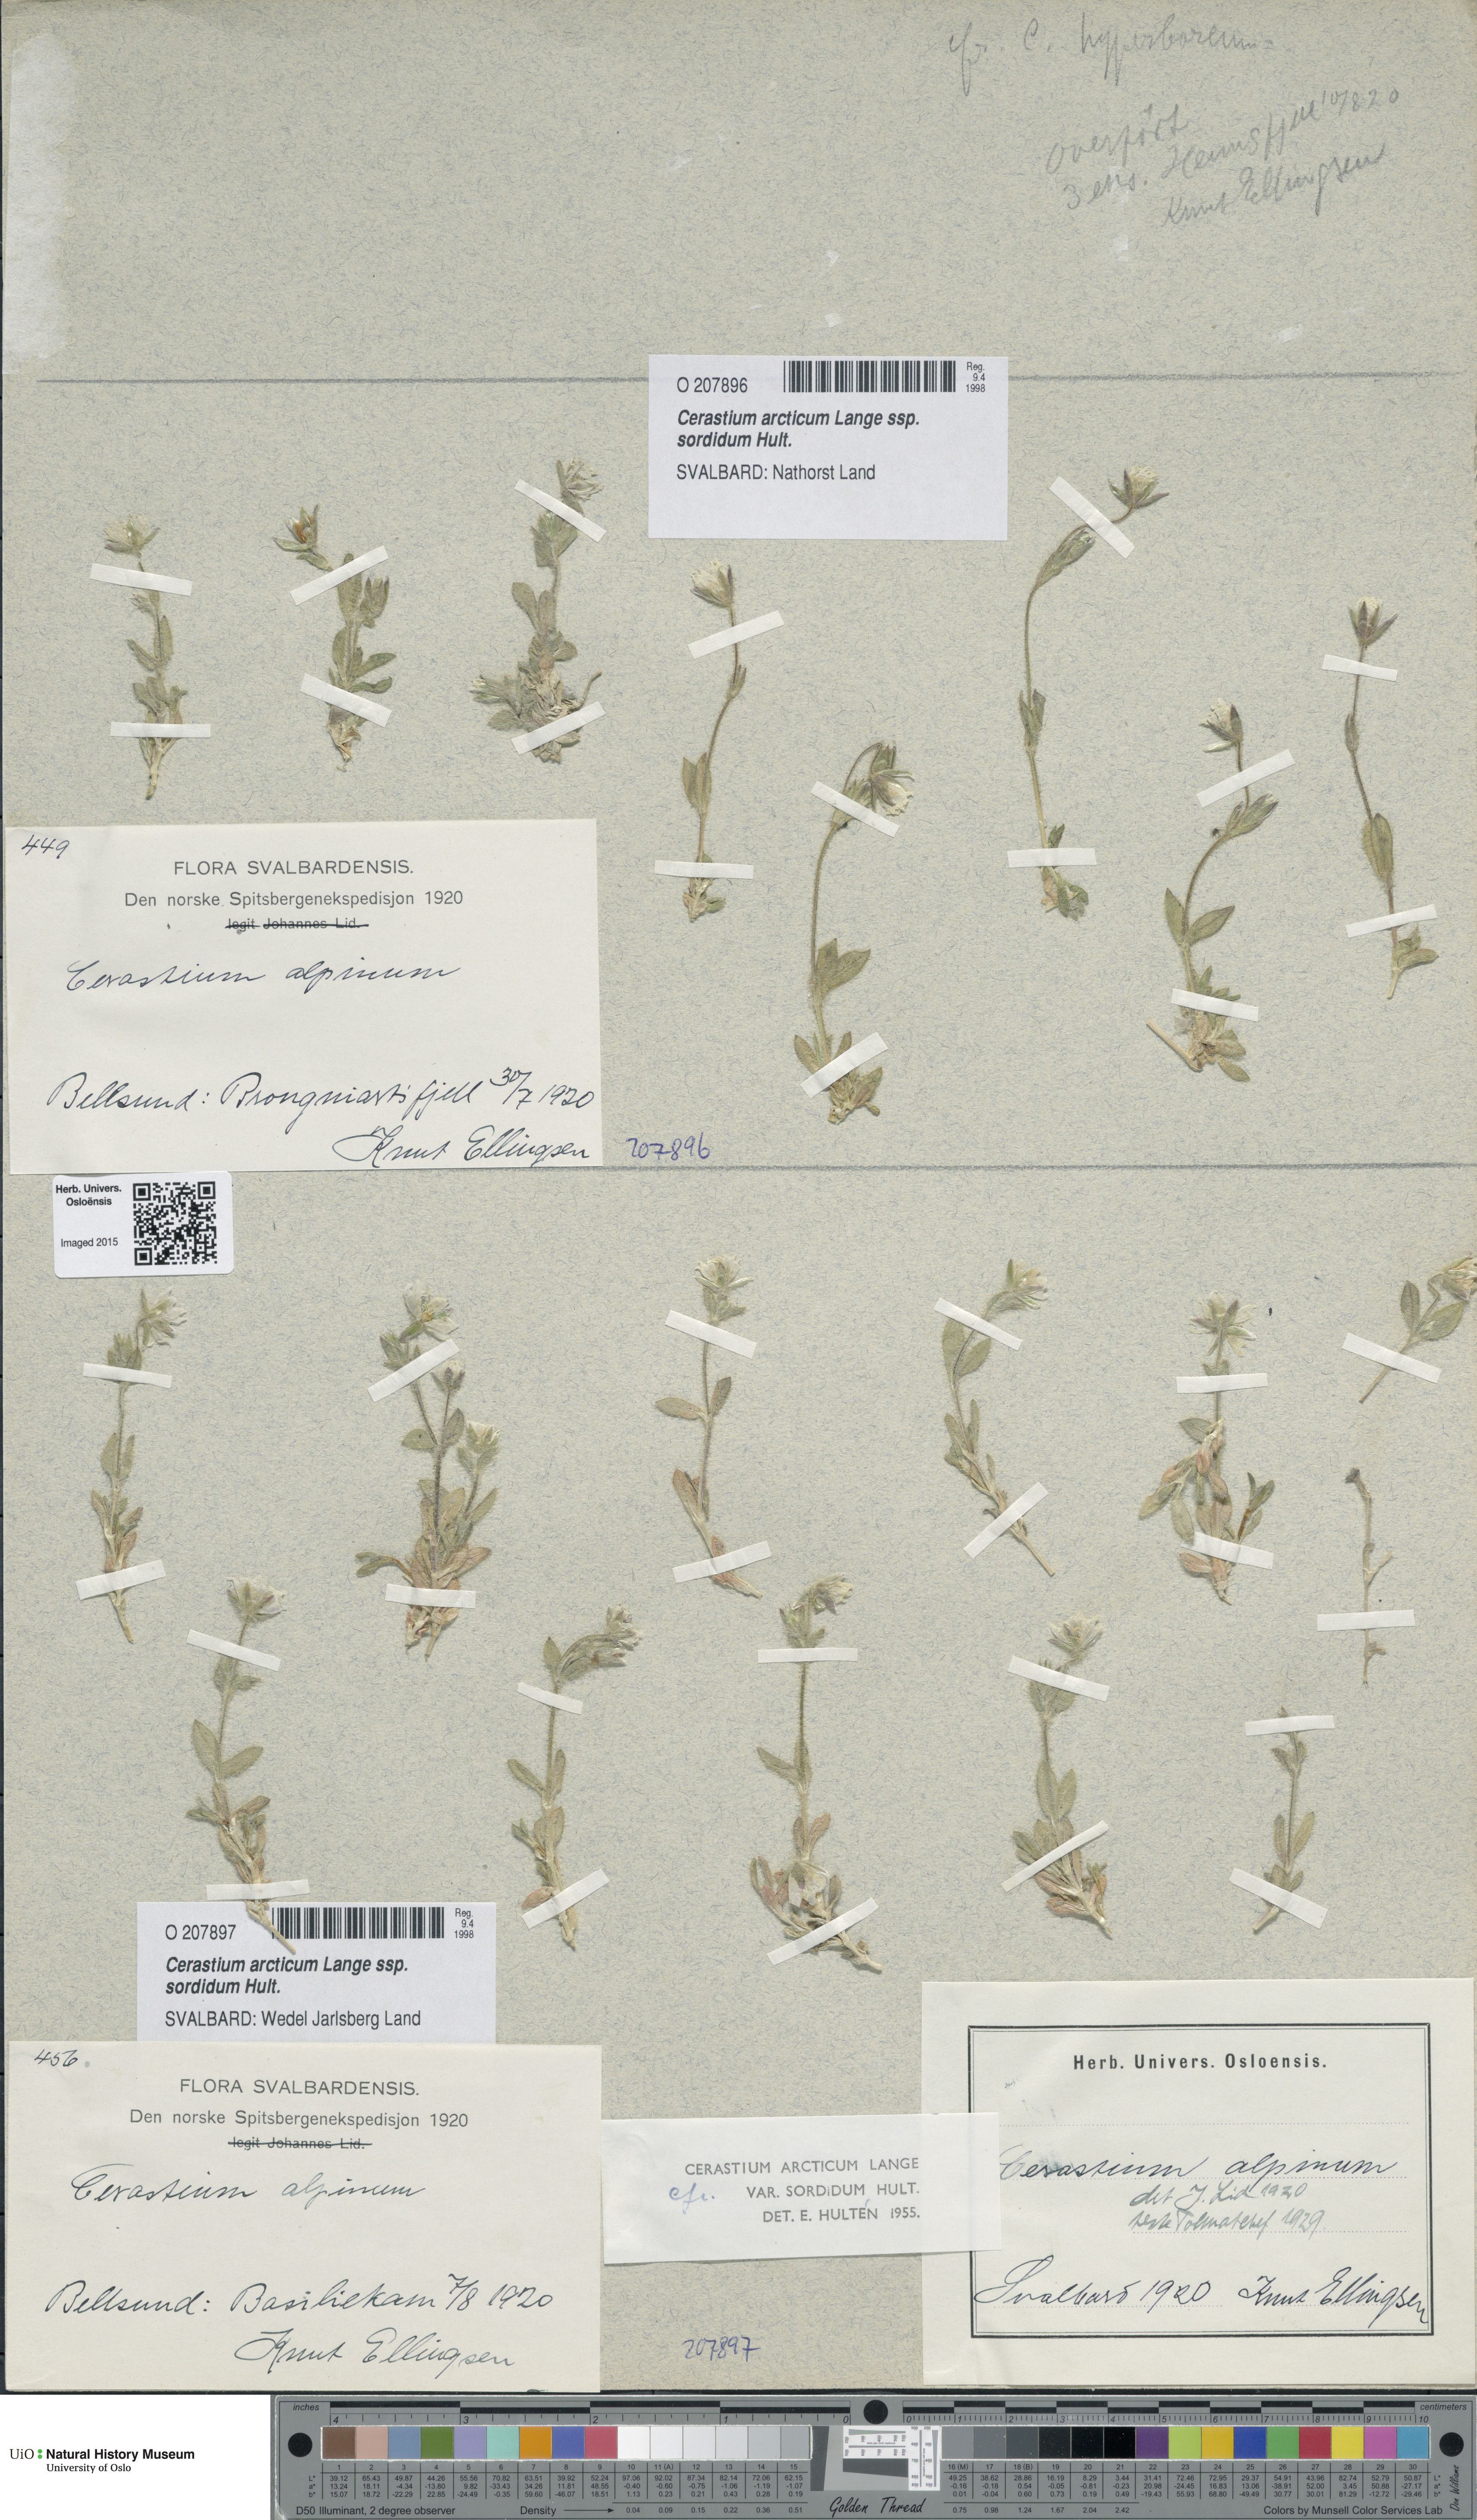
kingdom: Plantae
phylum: Tracheophyta
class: Magnoliopsida
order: Caryophyllales
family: Caryophyllaceae
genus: Cerastium
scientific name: Cerastium sordidum
